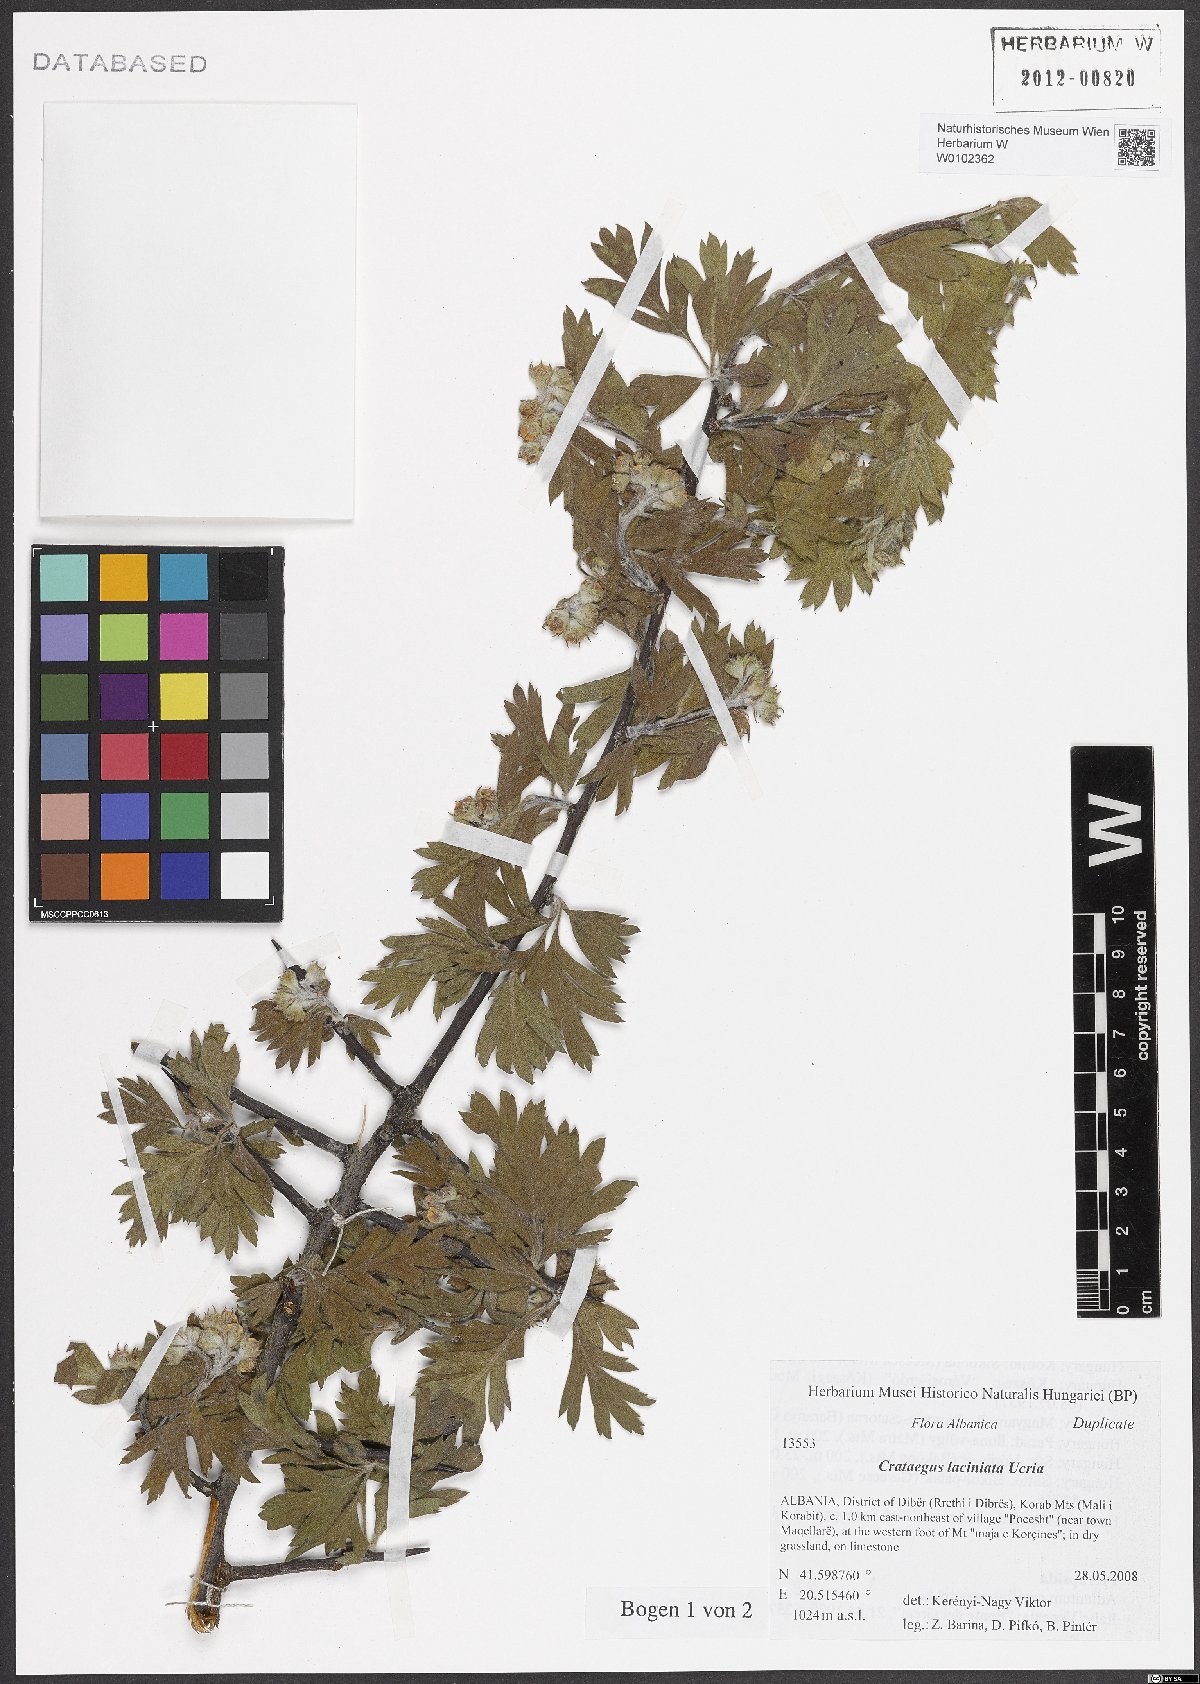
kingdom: Plantae
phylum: Tracheophyta
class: Magnoliopsida
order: Rosales
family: Rosaceae
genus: Crataegus
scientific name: Crataegus laciniata
